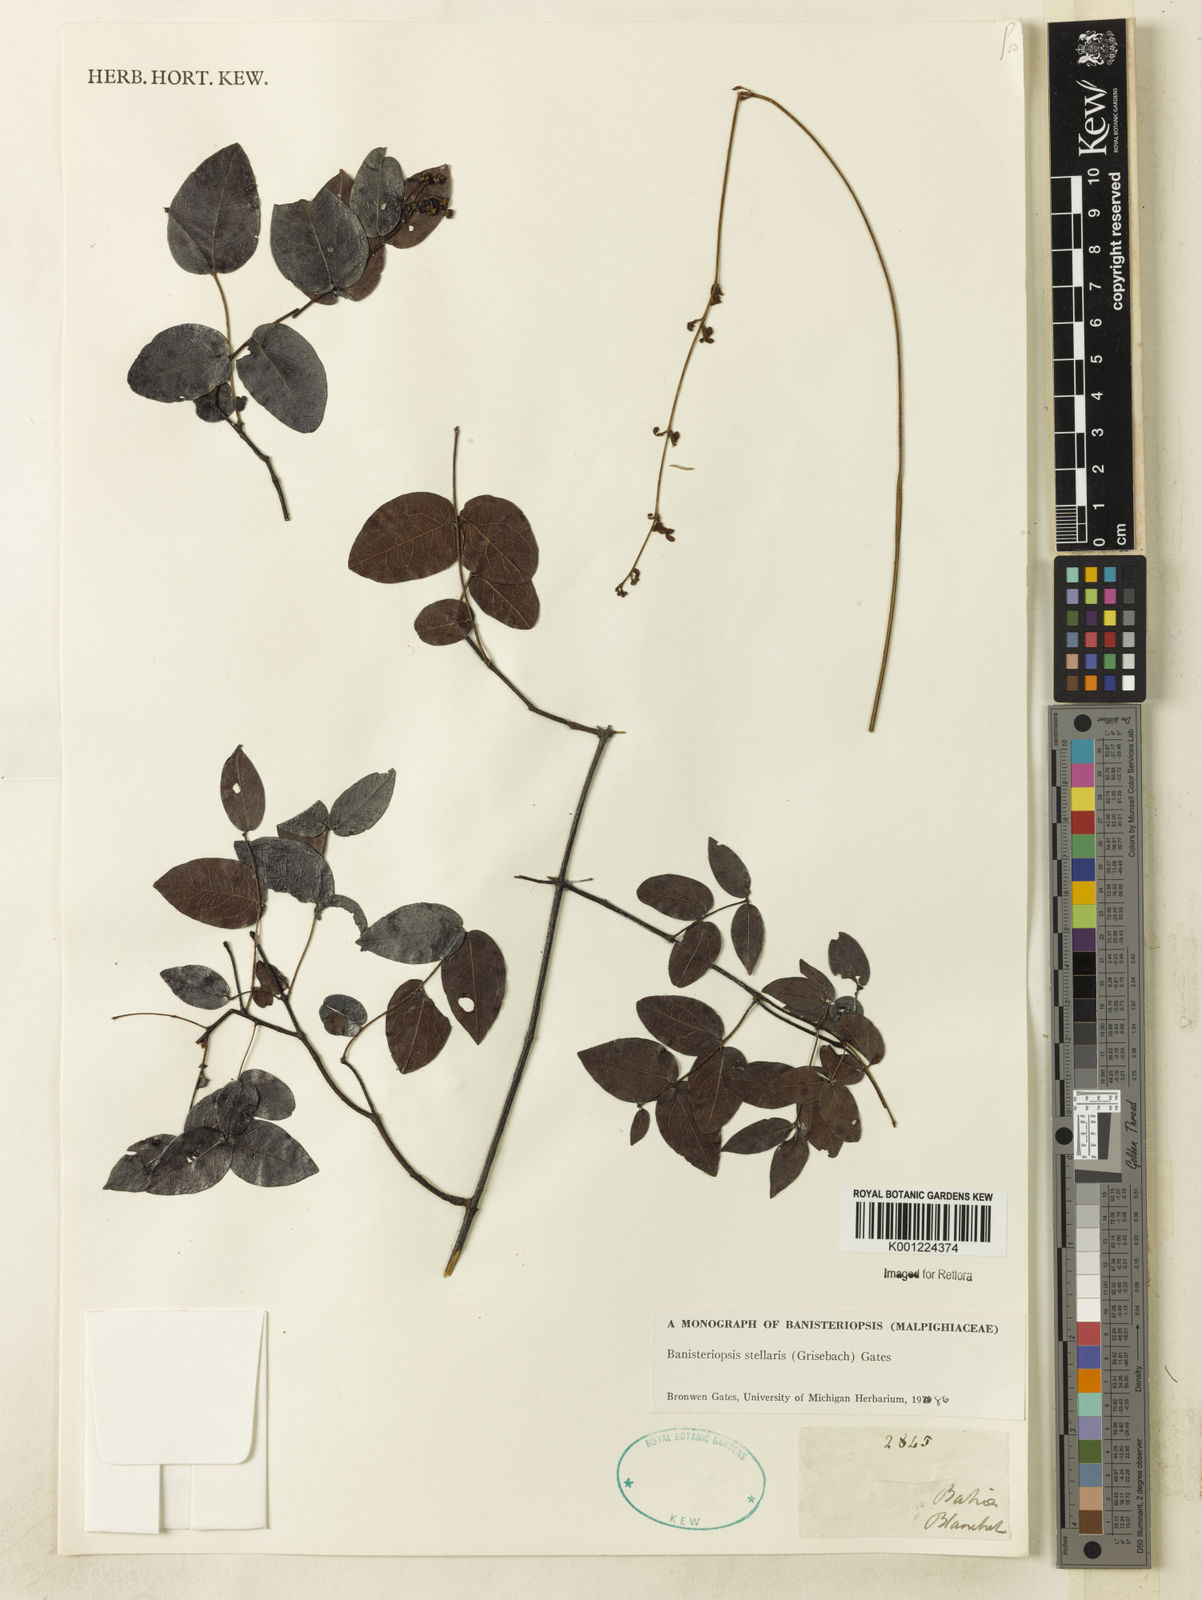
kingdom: Plantae
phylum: Tracheophyta
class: Magnoliopsida
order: Malpighiales
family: Malpighiaceae
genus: Banisteriopsis
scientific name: Banisteriopsis stellaris
